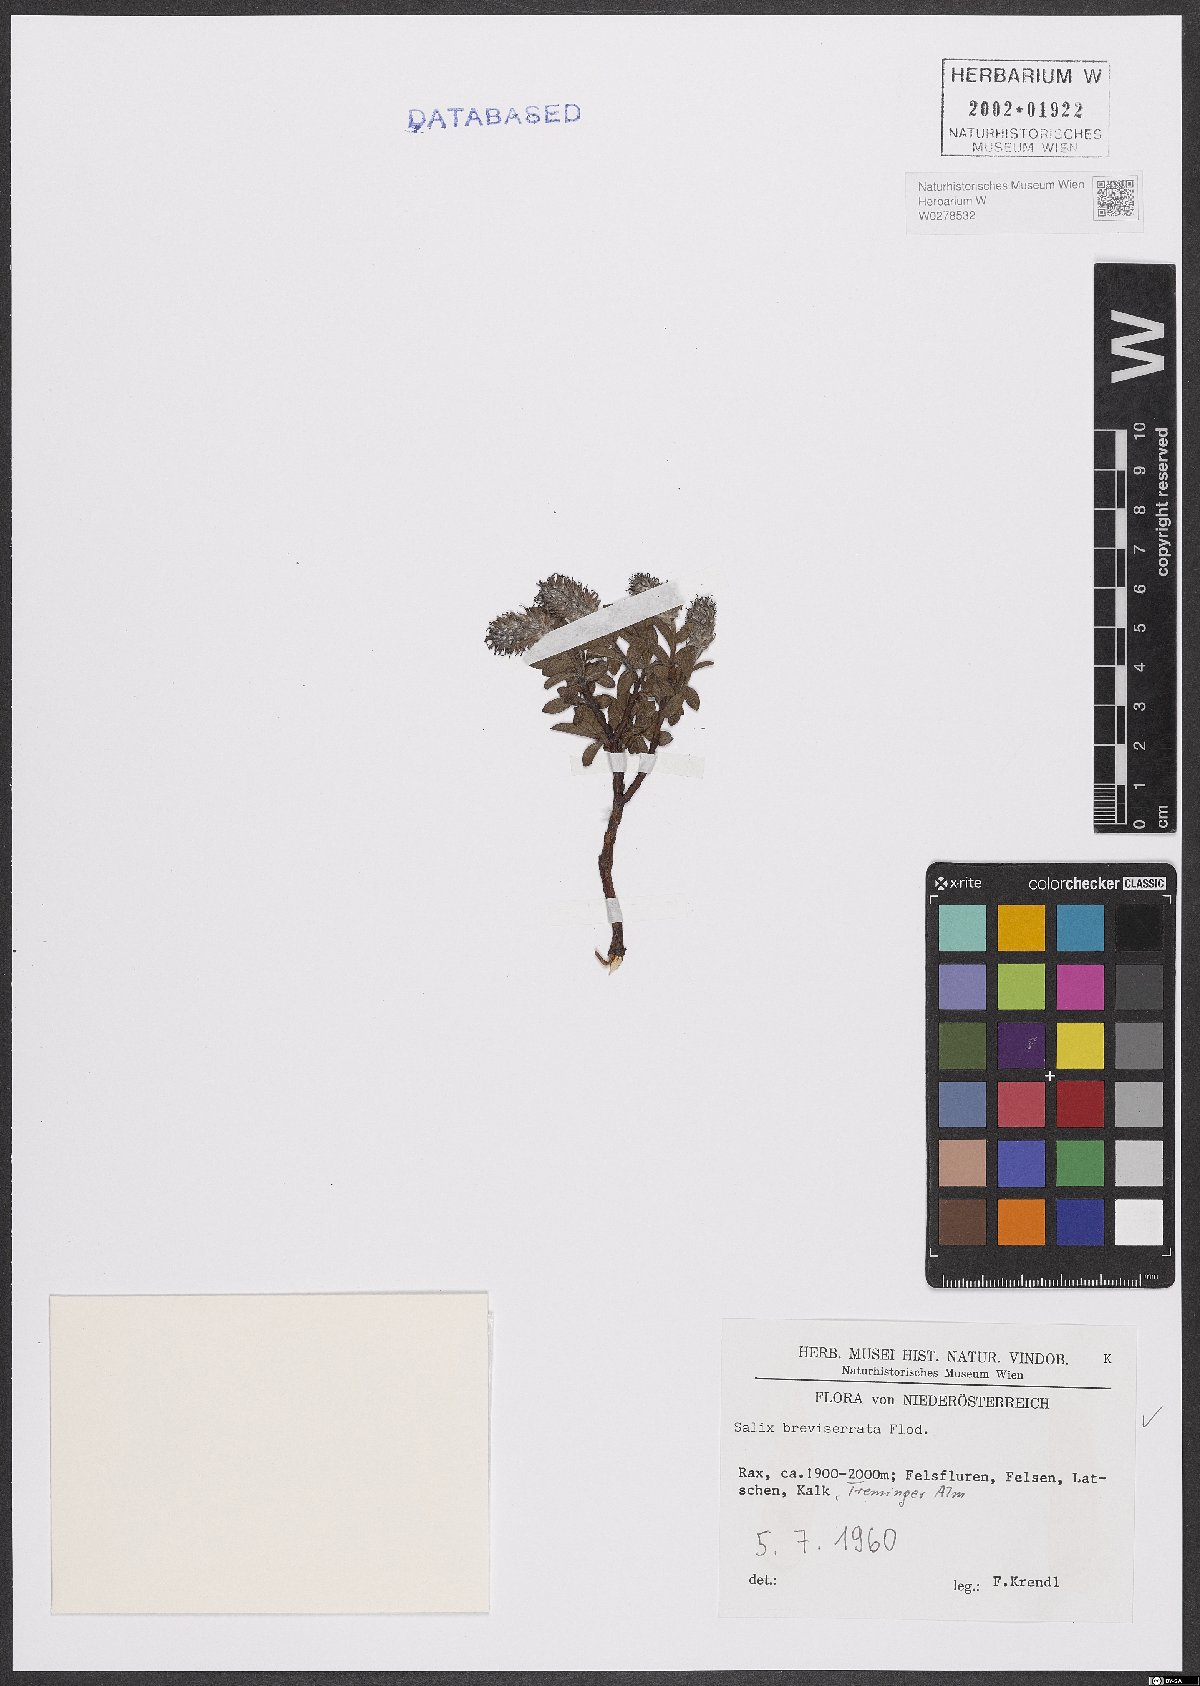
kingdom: Plantae
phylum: Tracheophyta
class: Magnoliopsida
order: Malpighiales
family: Salicaceae
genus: Salix
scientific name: Salix breviserrata
